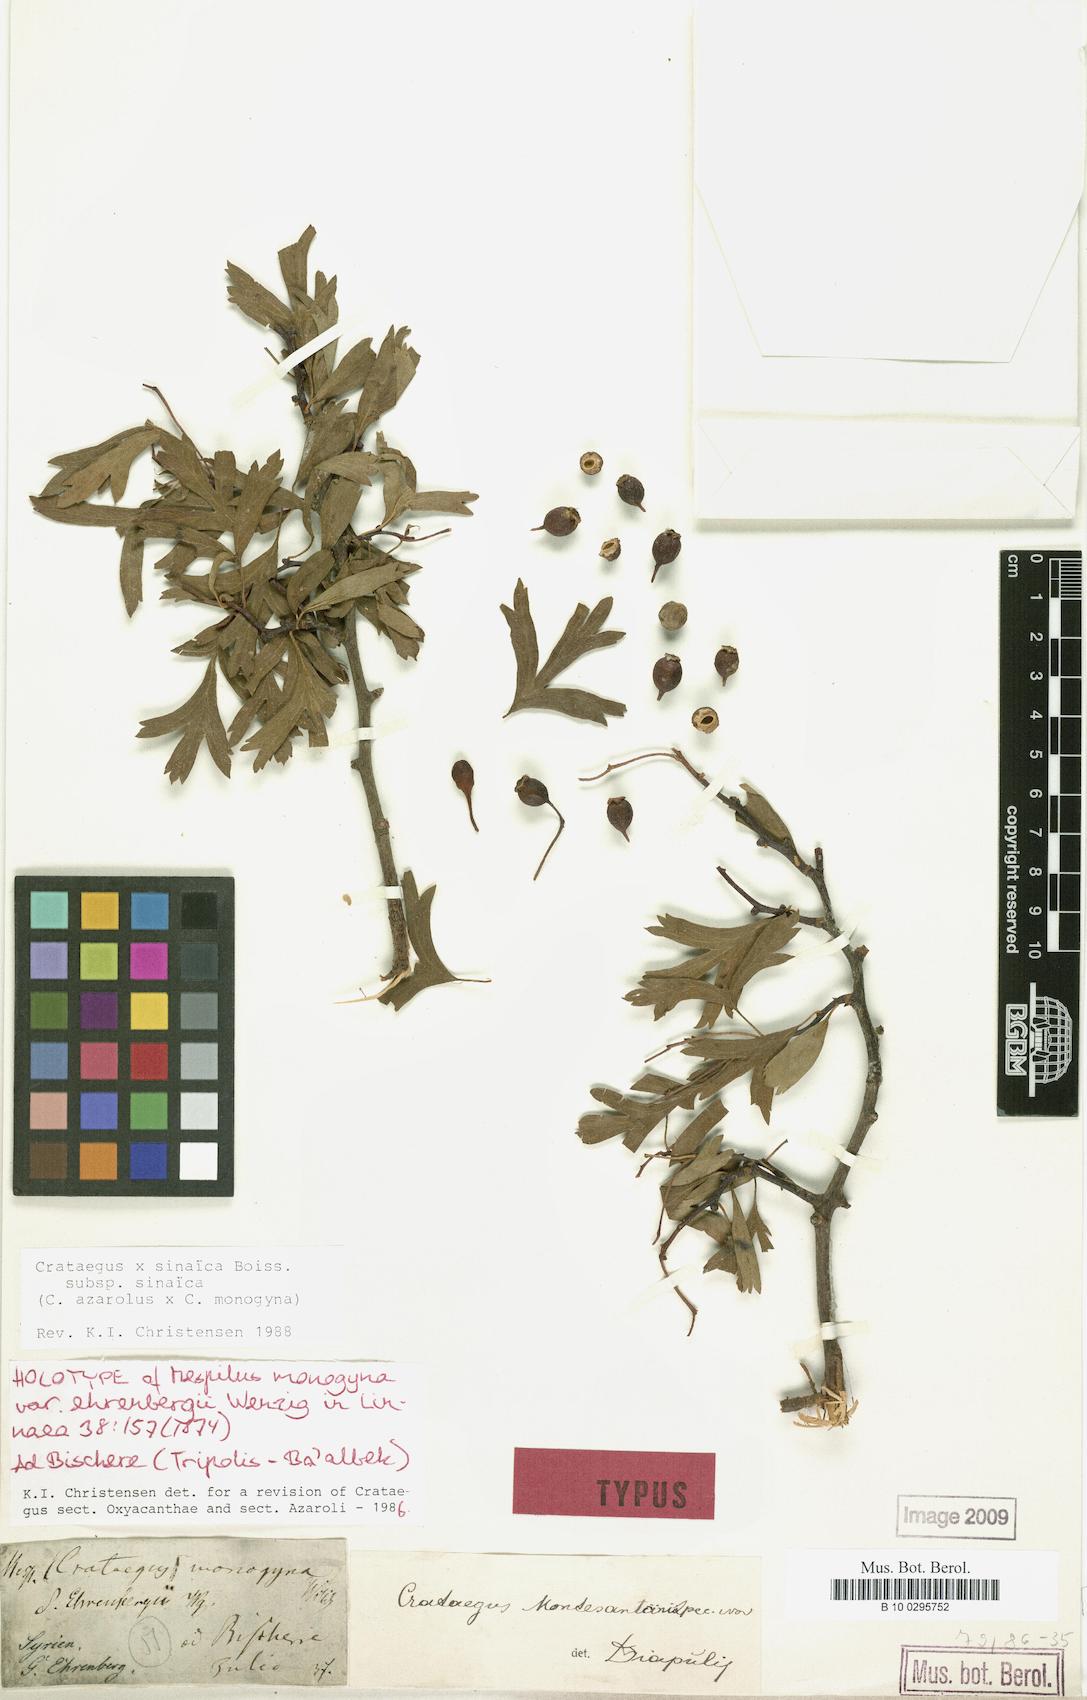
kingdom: Plantae
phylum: Tracheophyta
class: Magnoliopsida
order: Rosales
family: Rosaceae
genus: Crataegus
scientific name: Crataegus sinaica
